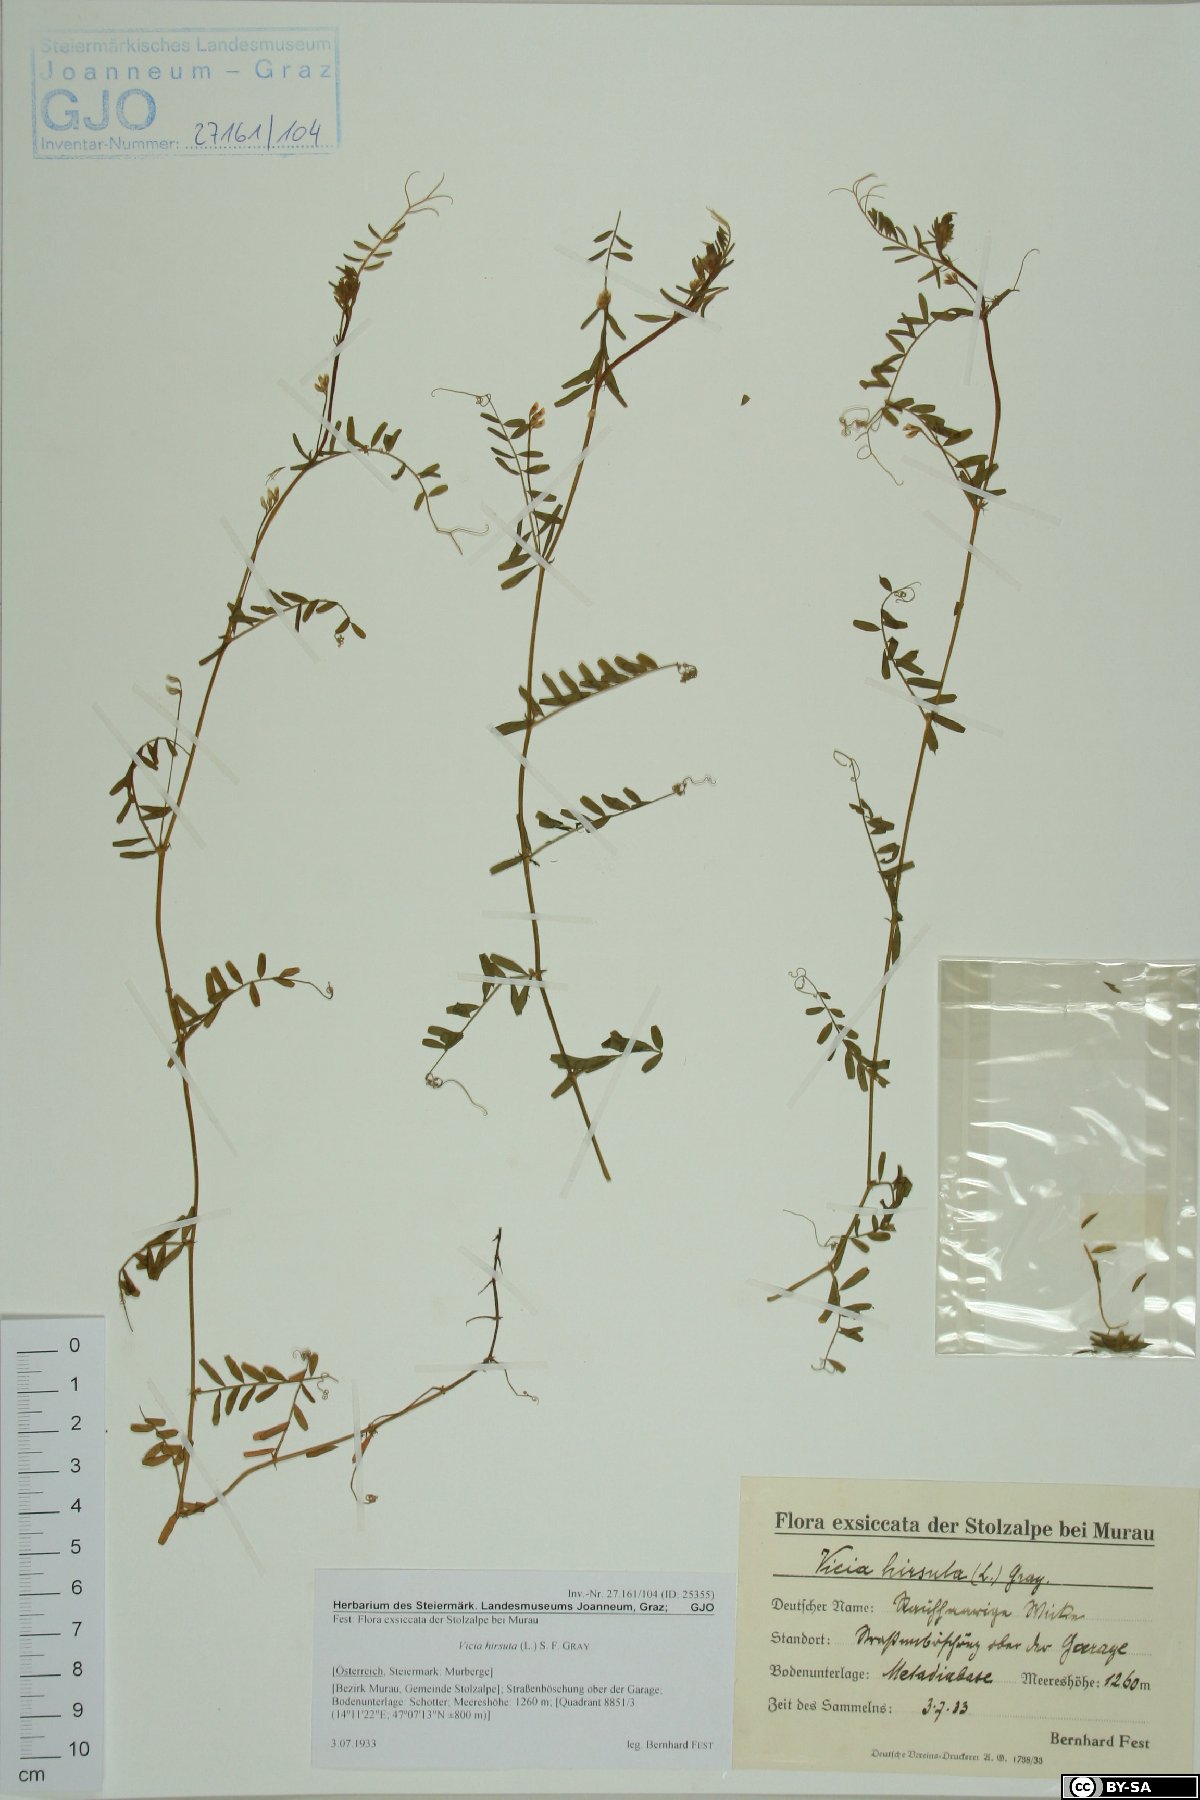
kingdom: Plantae
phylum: Tracheophyta
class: Magnoliopsida
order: Fabales
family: Fabaceae
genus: Vicia
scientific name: Vicia hirsuta
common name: Tiny vetch
